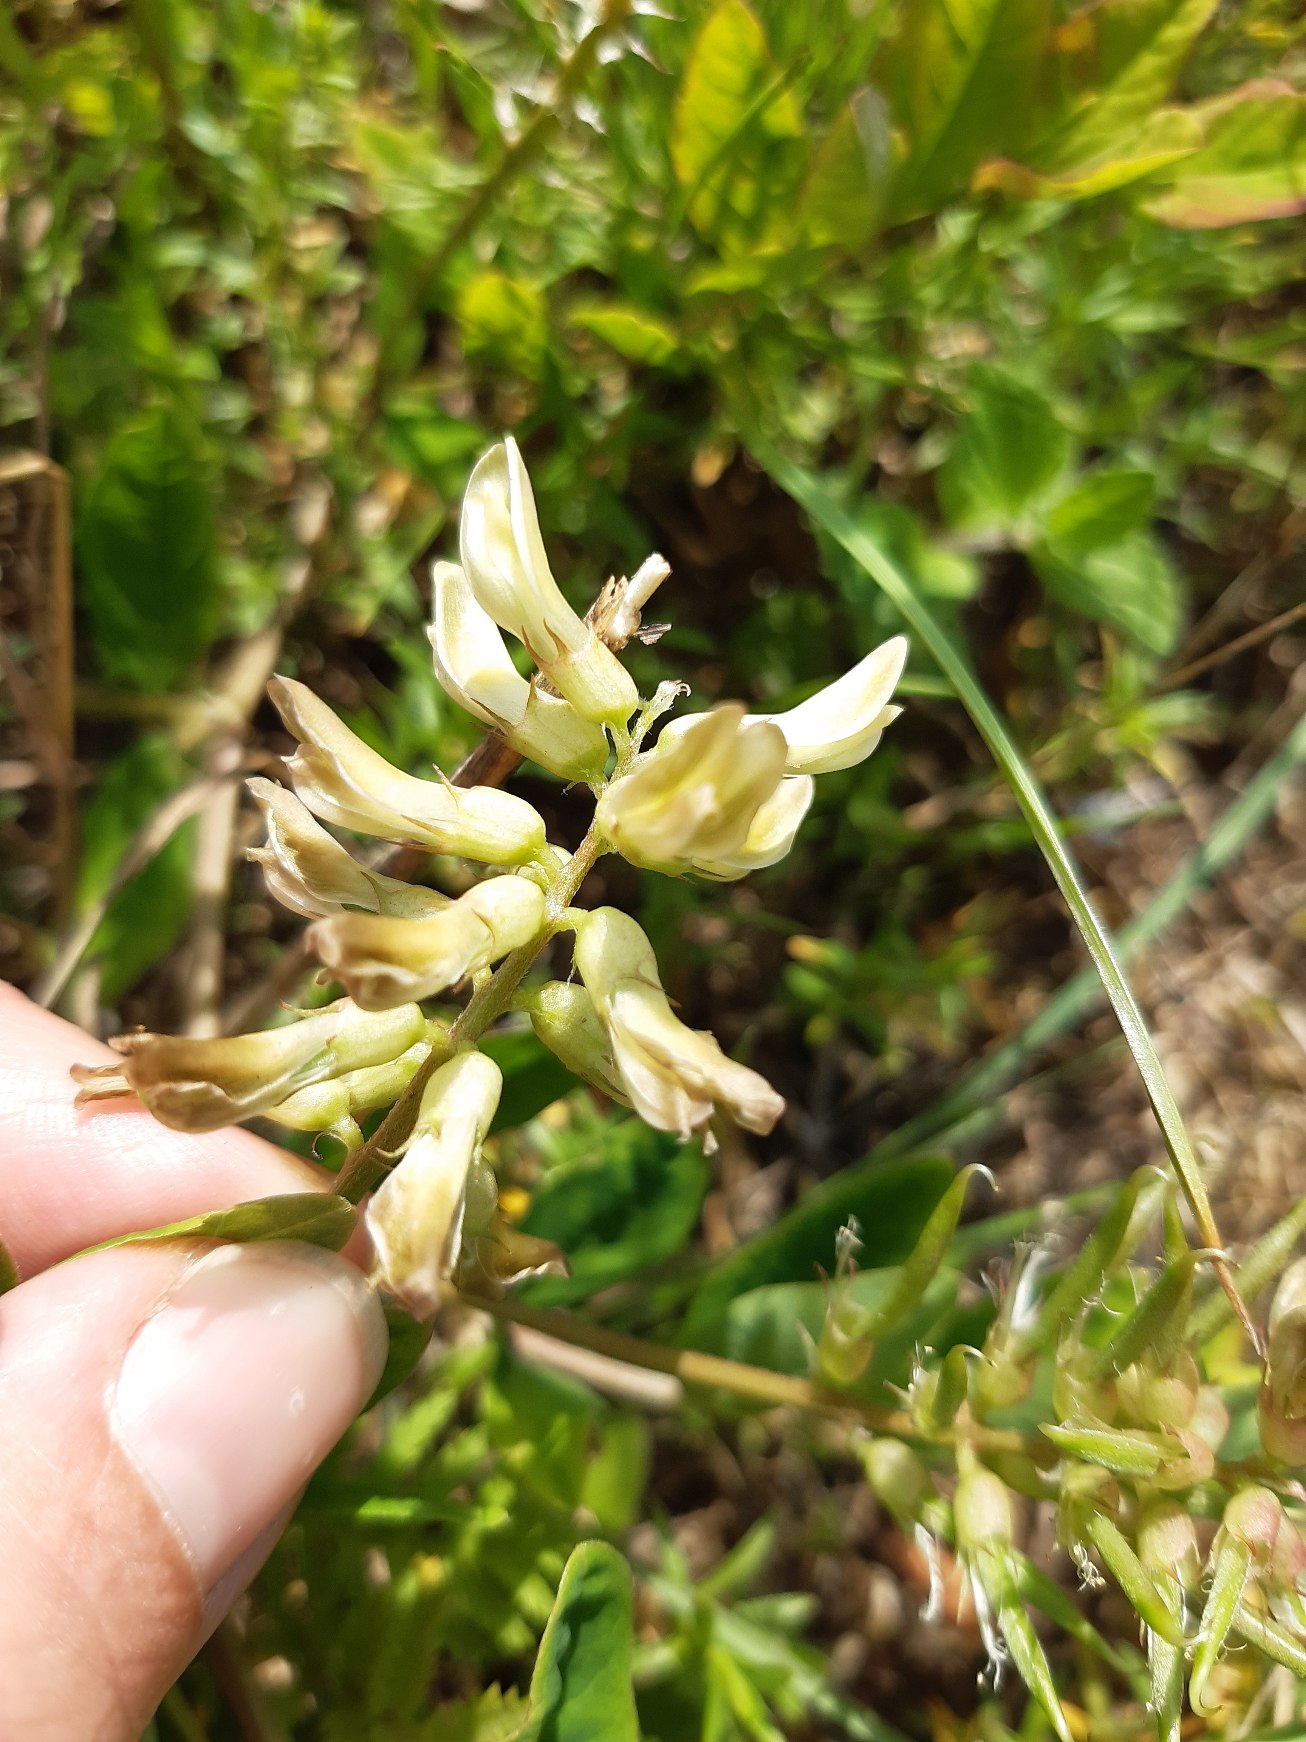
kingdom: Plantae
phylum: Tracheophyta
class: Magnoliopsida
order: Fabales
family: Fabaceae
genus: Astragalus
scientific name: Astragalus glycyphyllos
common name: Sød astragel
